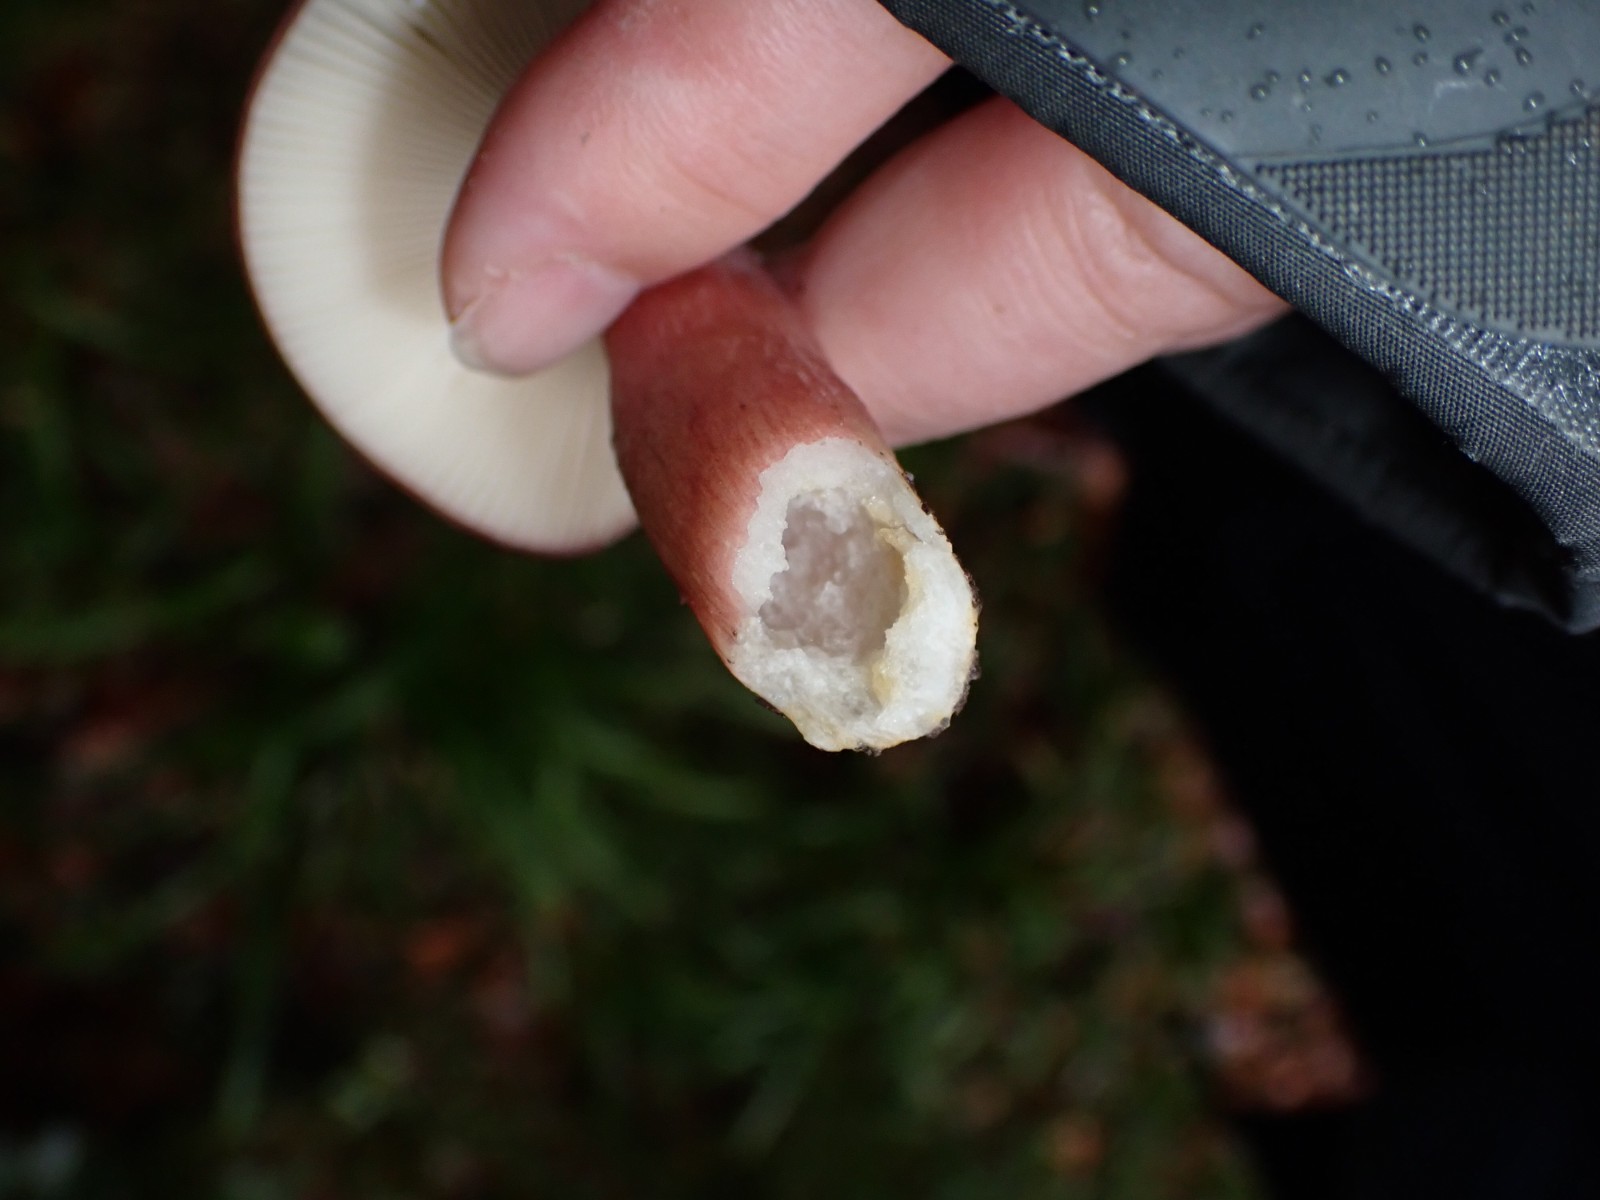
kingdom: Fungi
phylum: Basidiomycota
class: Agaricomycetes
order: Russulales
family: Russulaceae
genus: Russula
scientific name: Russula queletii
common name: Quélets skørhat
